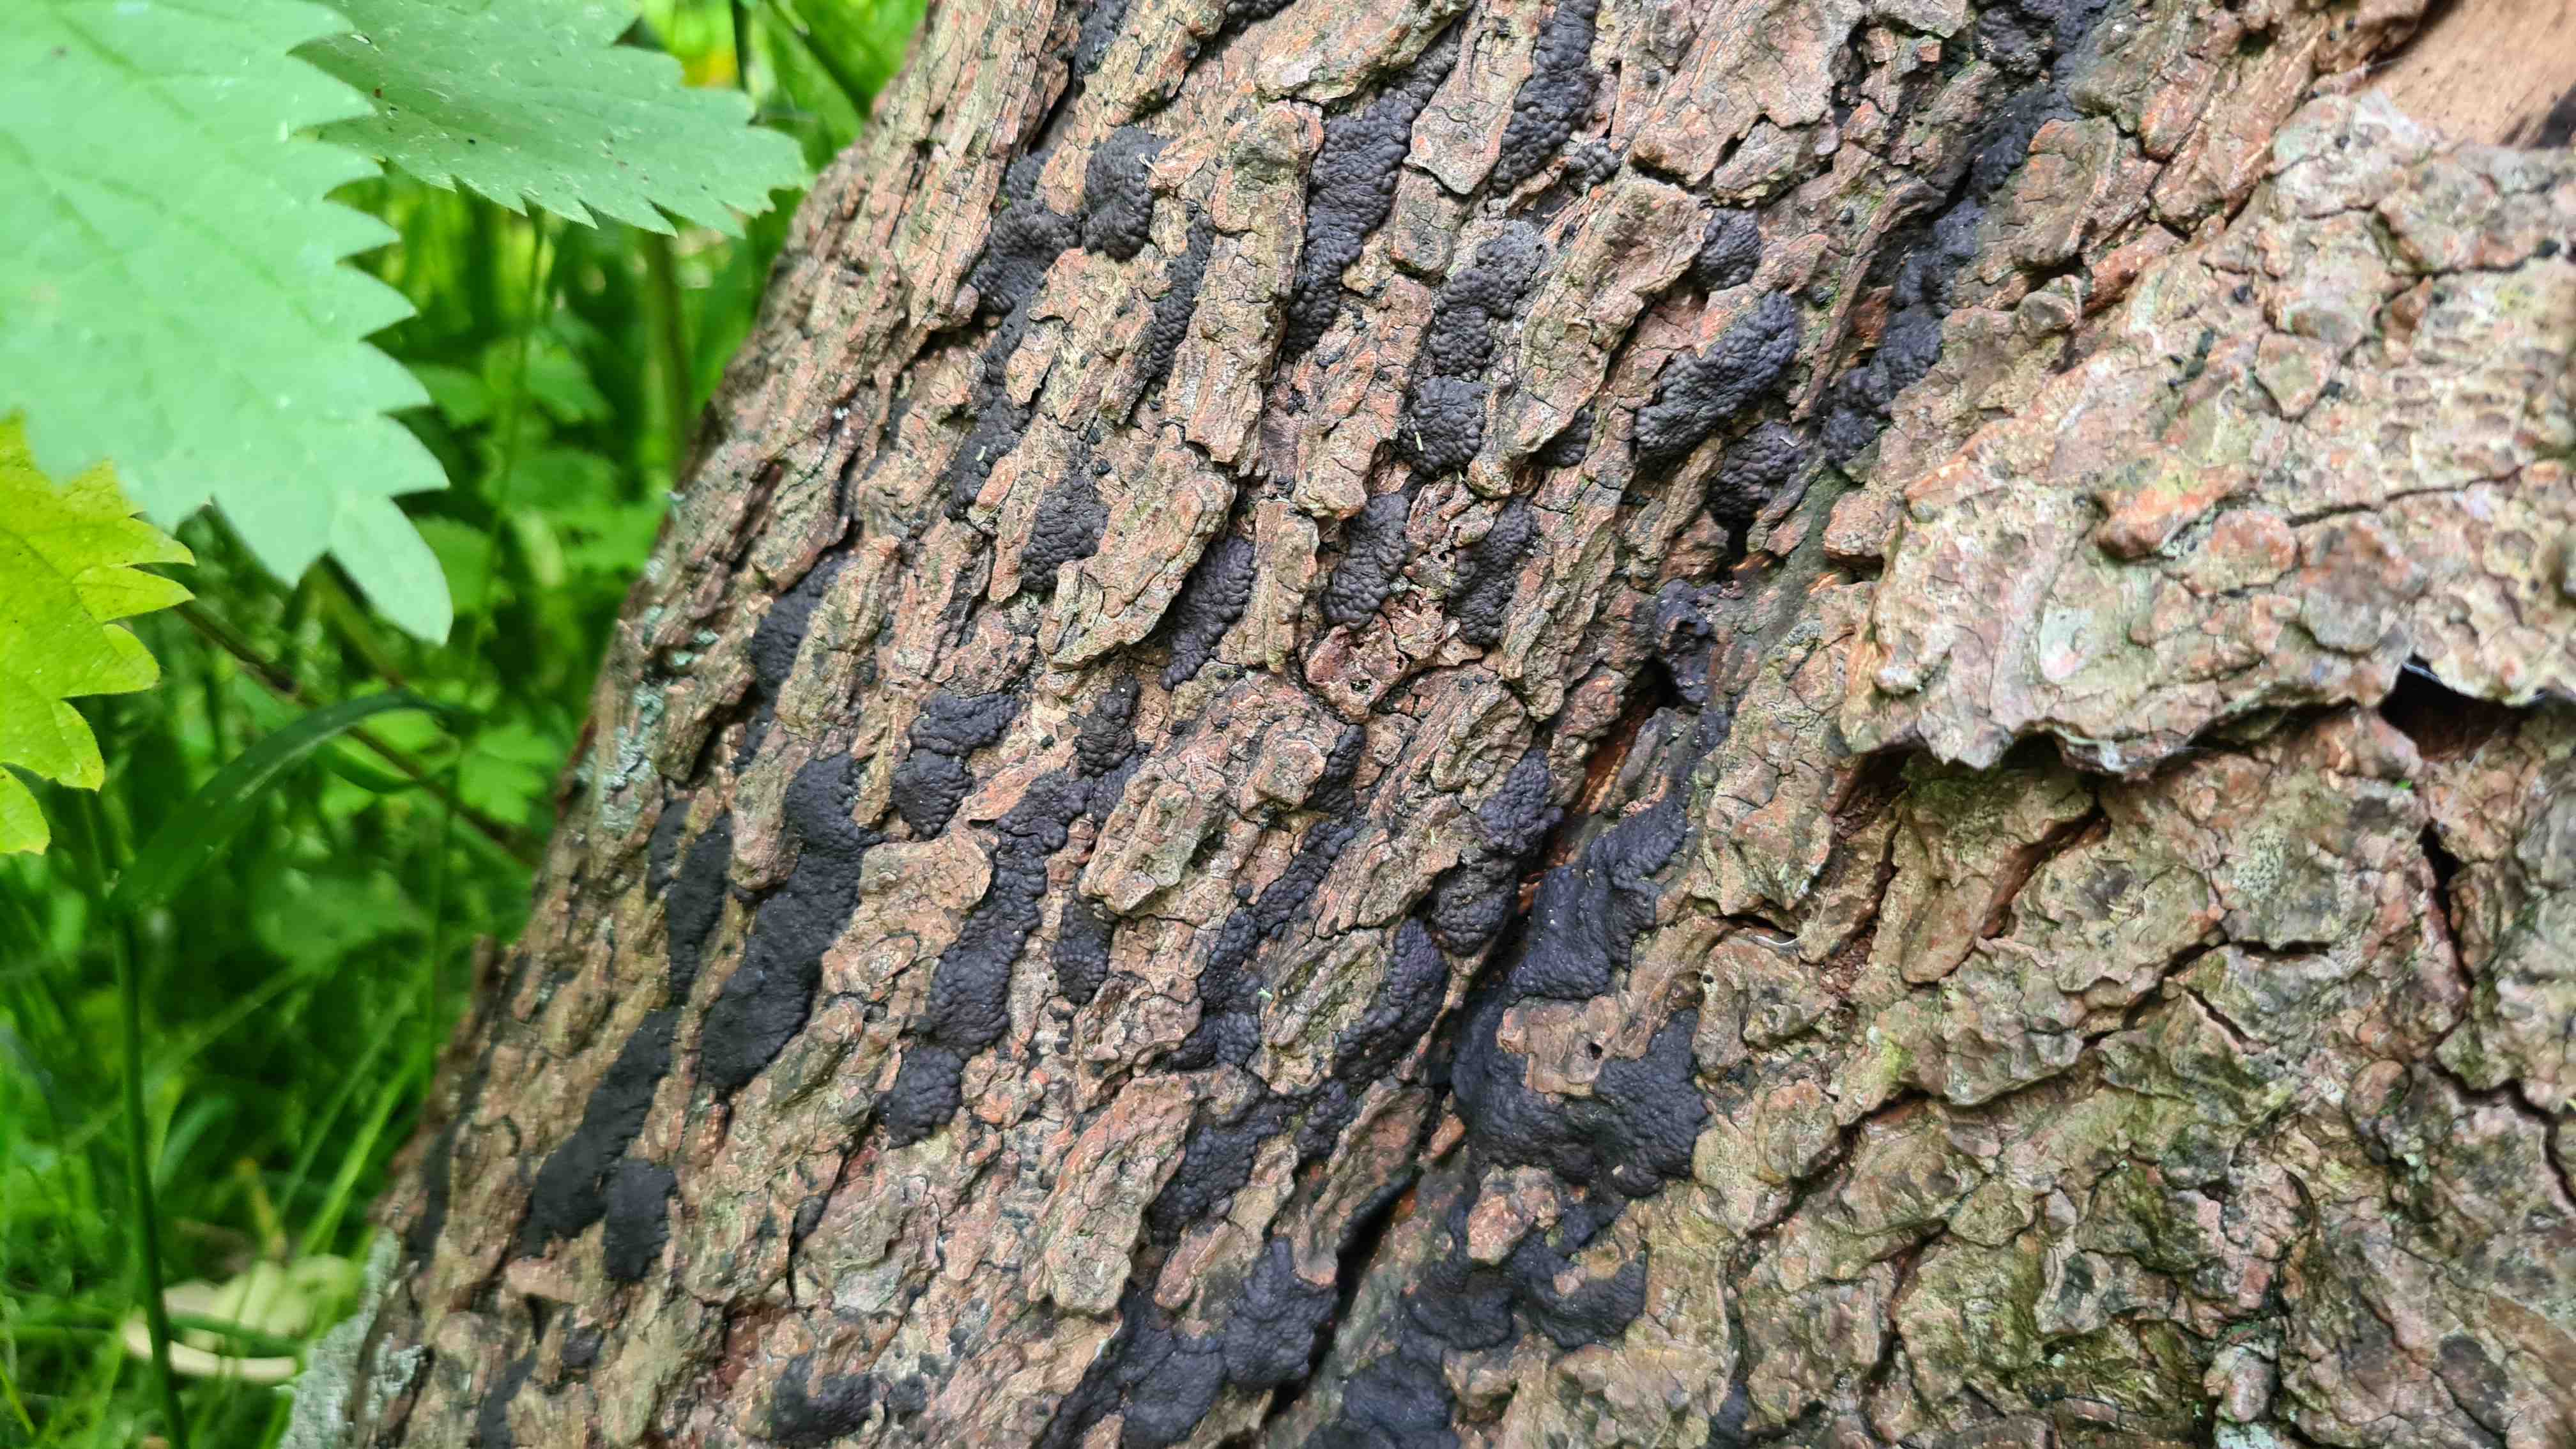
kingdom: Fungi
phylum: Ascomycota
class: Sordariomycetes
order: Xylariales
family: Hypoxylaceae
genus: Jackrogersella
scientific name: Jackrogersella multiformis
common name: foranderlig kulbær
